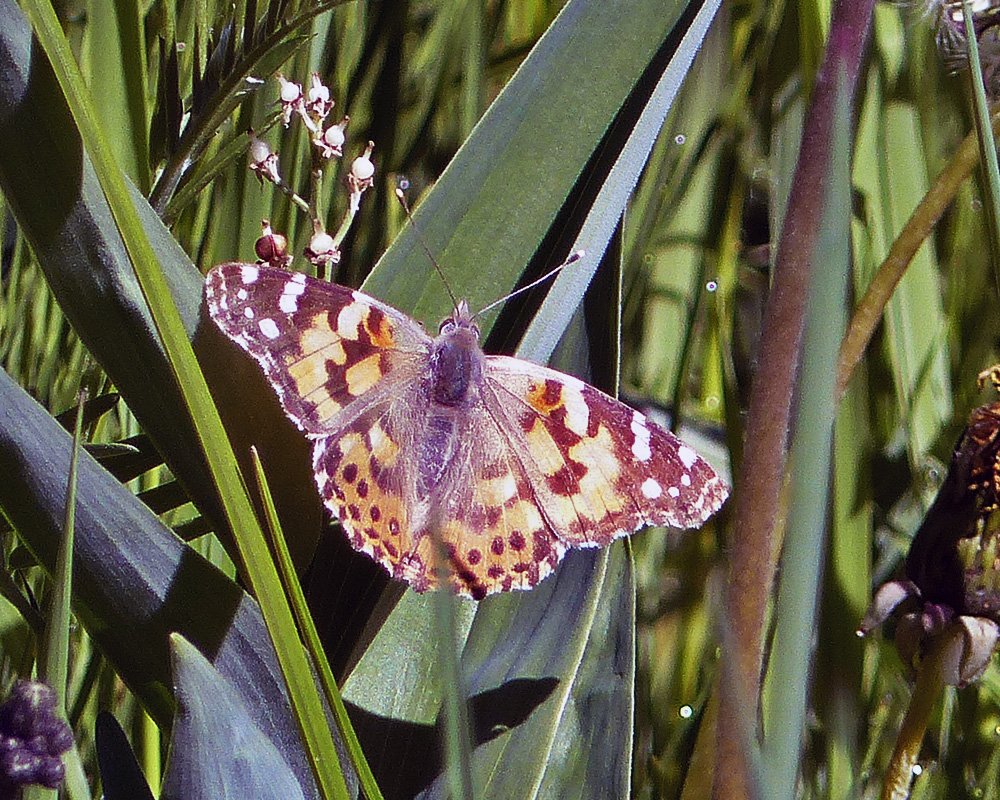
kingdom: Animalia
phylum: Arthropoda
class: Insecta
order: Lepidoptera
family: Nymphalidae
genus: Vanessa
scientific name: Vanessa cardui
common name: Painted Lady
